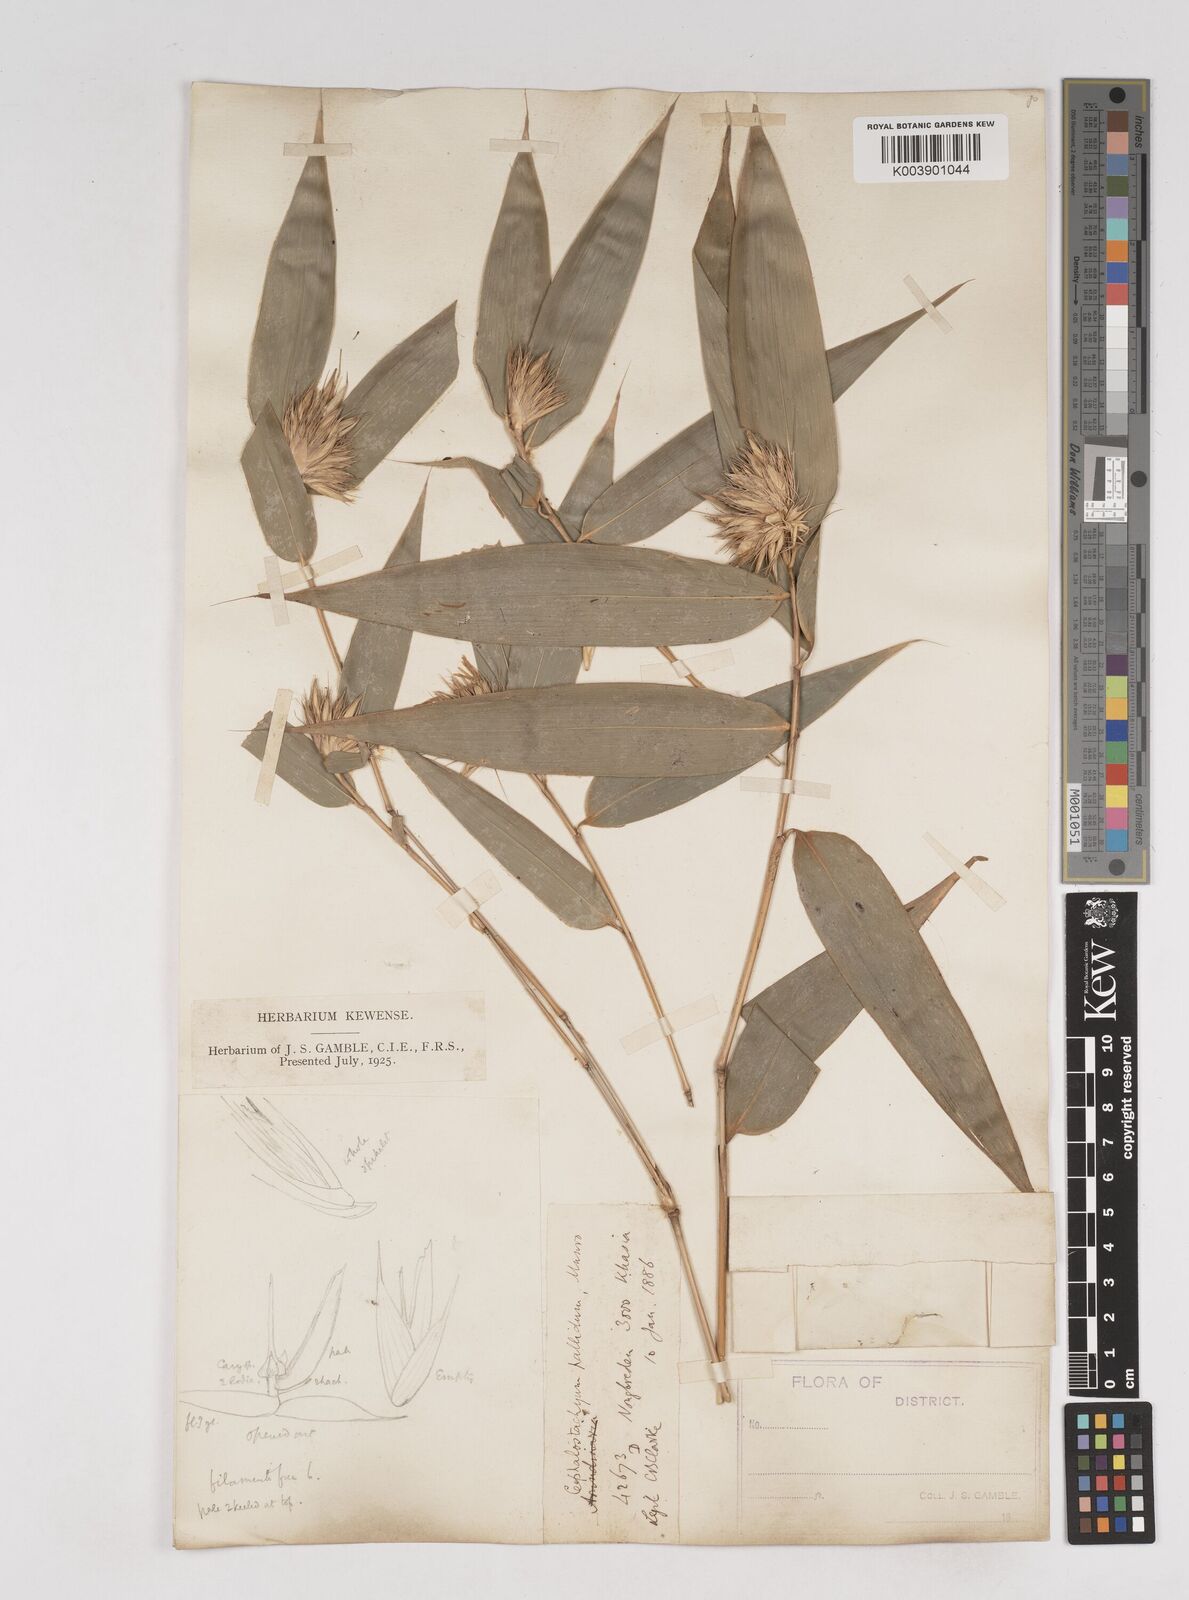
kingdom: Plantae
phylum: Tracheophyta
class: Liliopsida
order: Poales
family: Poaceae
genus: Cephalostachyum
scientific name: Cephalostachyum pallidum
